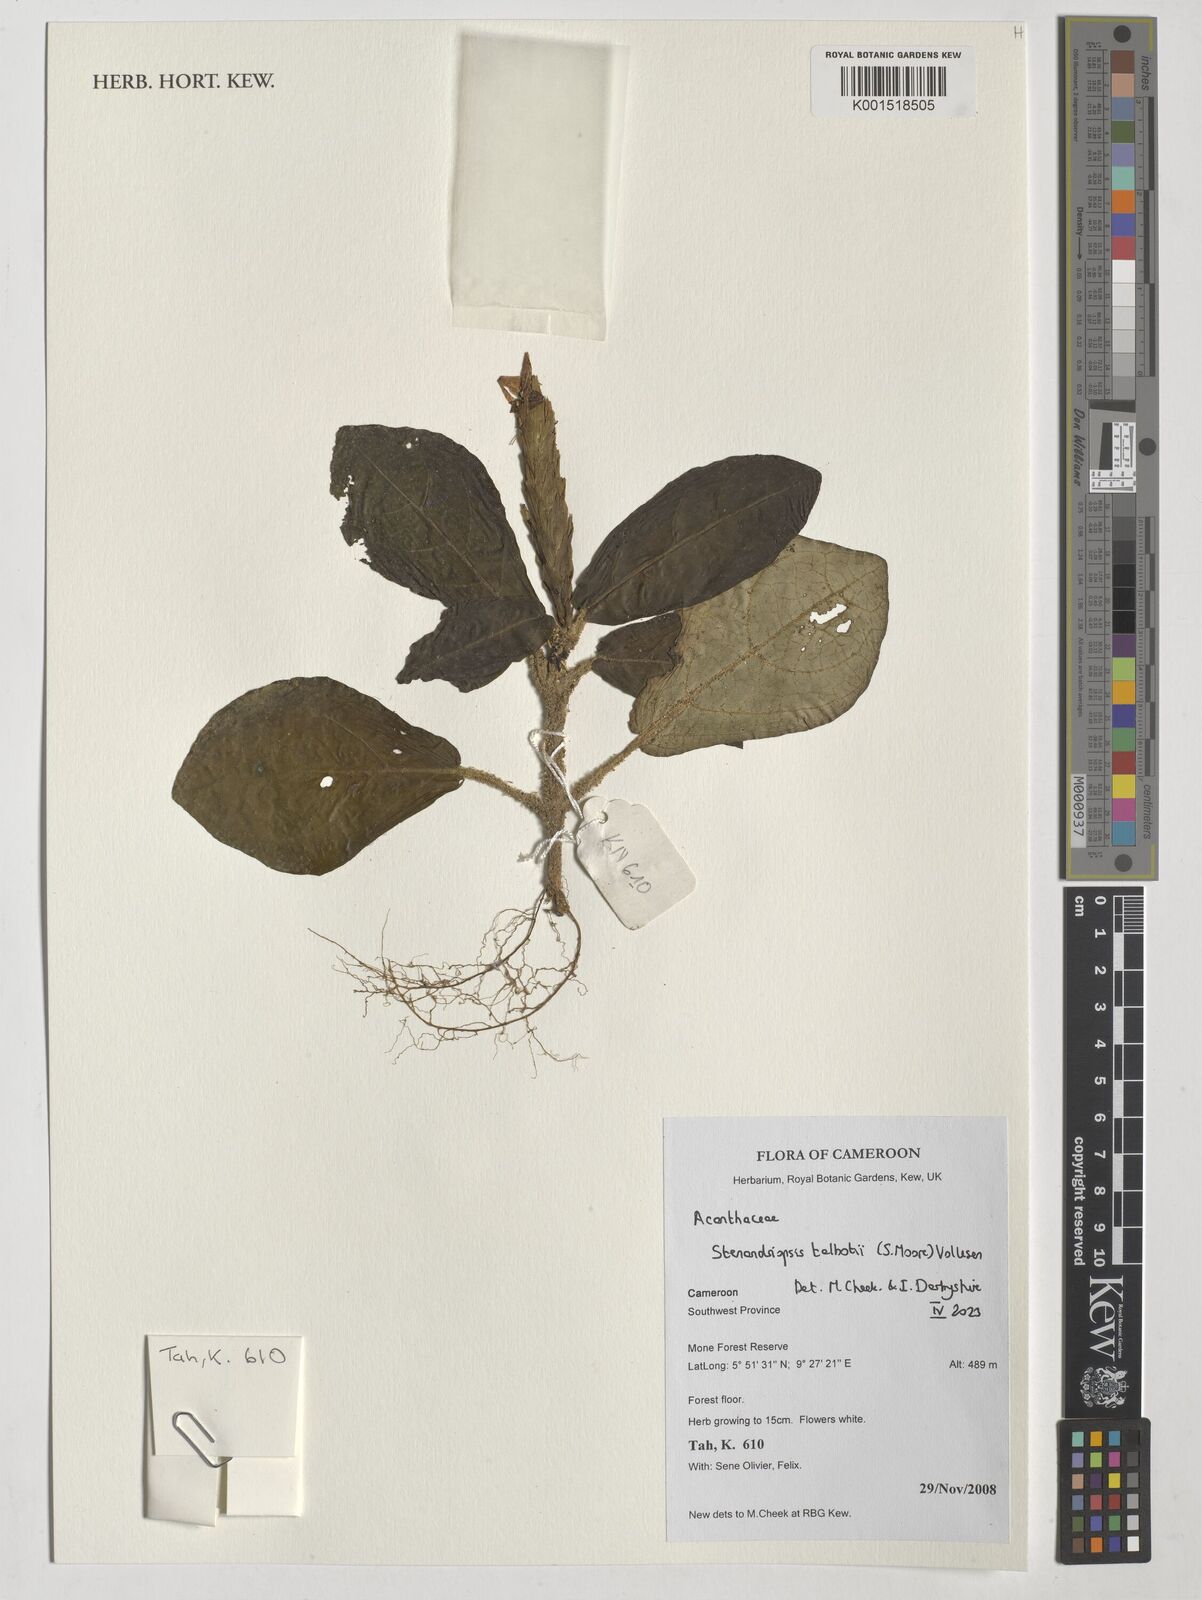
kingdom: Plantae
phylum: Tracheophyta
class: Magnoliopsida
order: Lamiales
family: Acanthaceae
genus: Stenandriopsis
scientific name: Stenandriopsis talbotii
